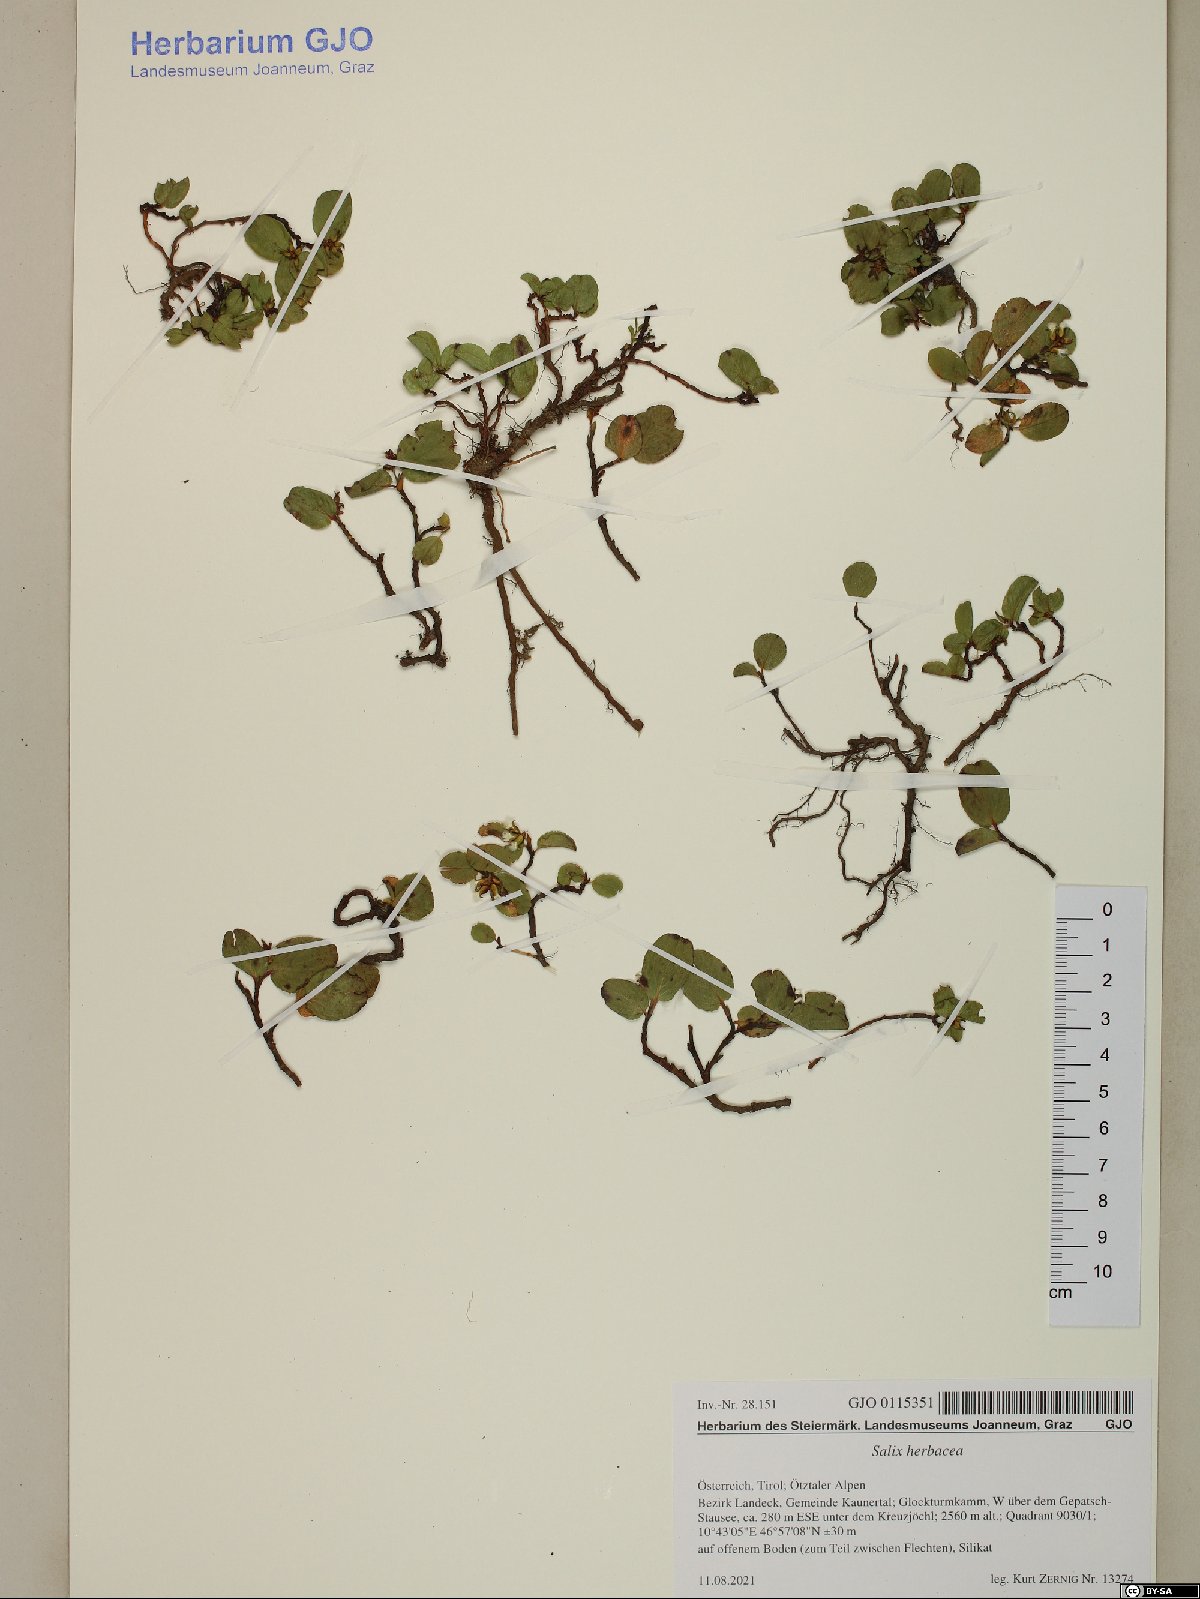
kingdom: Plantae
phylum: Tracheophyta
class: Magnoliopsida
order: Malpighiales
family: Salicaceae
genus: Salix
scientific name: Salix herbacea
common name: Dwarf willow
